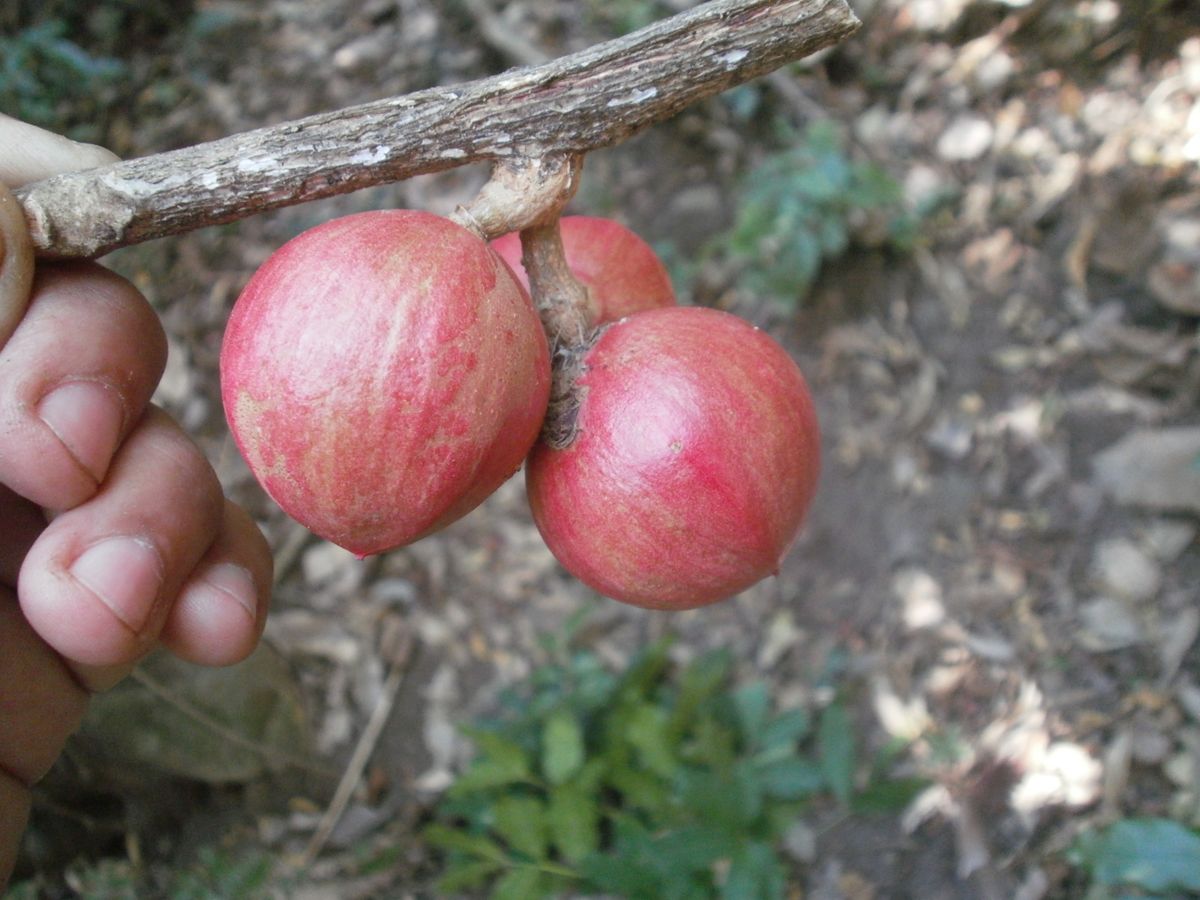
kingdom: Plantae
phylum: Tracheophyta
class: Magnoliopsida
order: Sapindales
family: Meliaceae
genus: Guarea
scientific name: Guarea glabra
